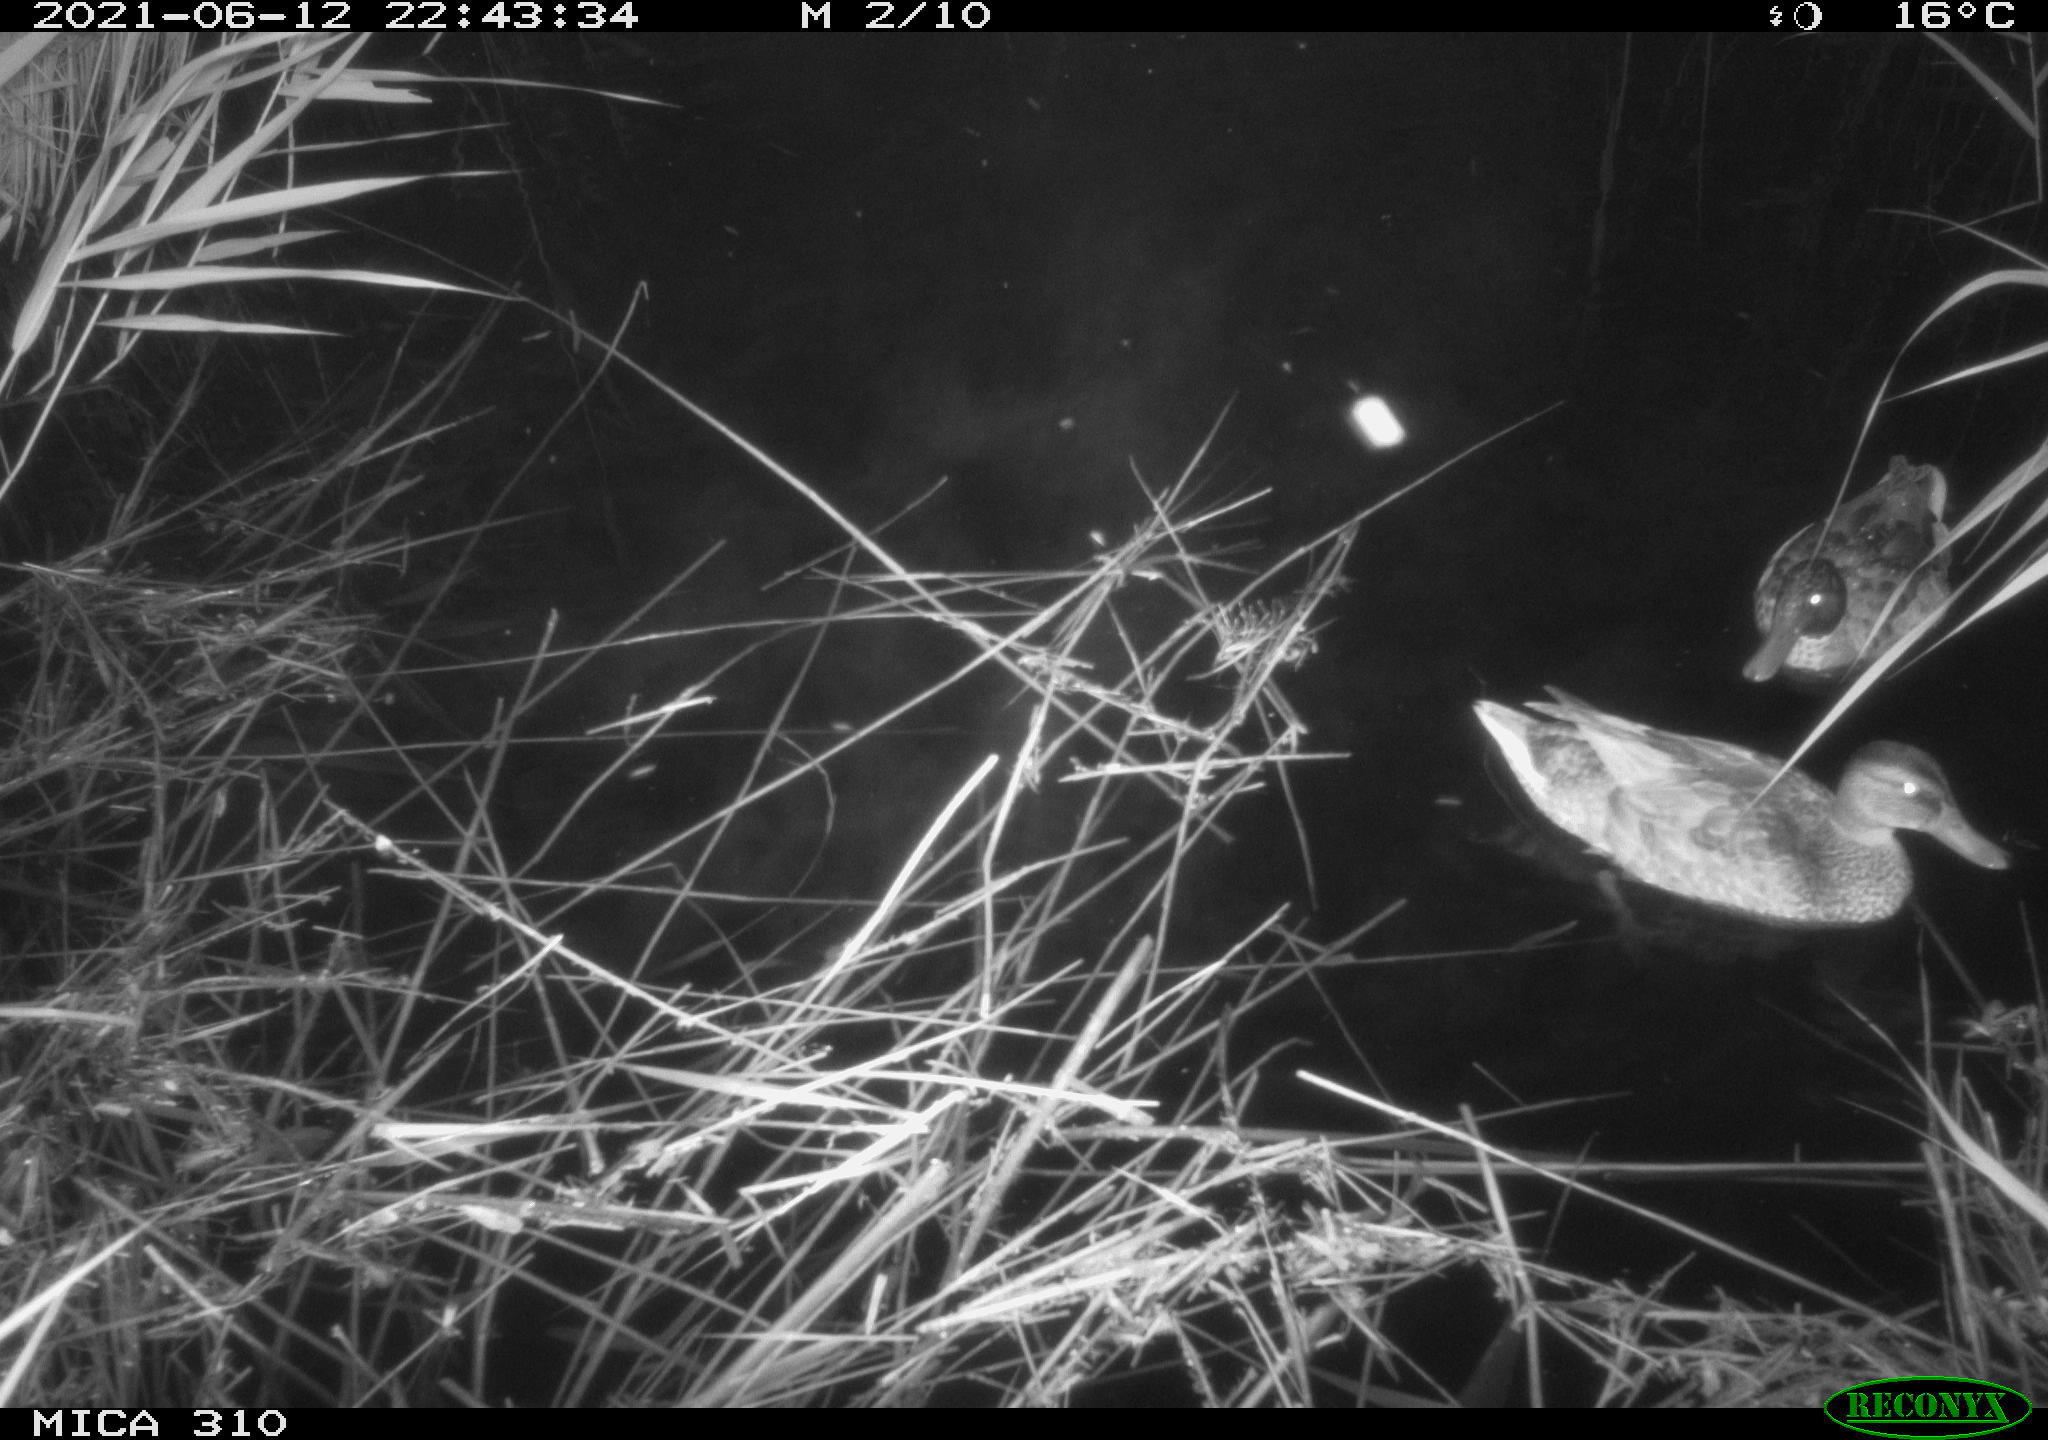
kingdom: Animalia
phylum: Chordata
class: Aves
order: Anseriformes
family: Anatidae
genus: Anas
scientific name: Anas
